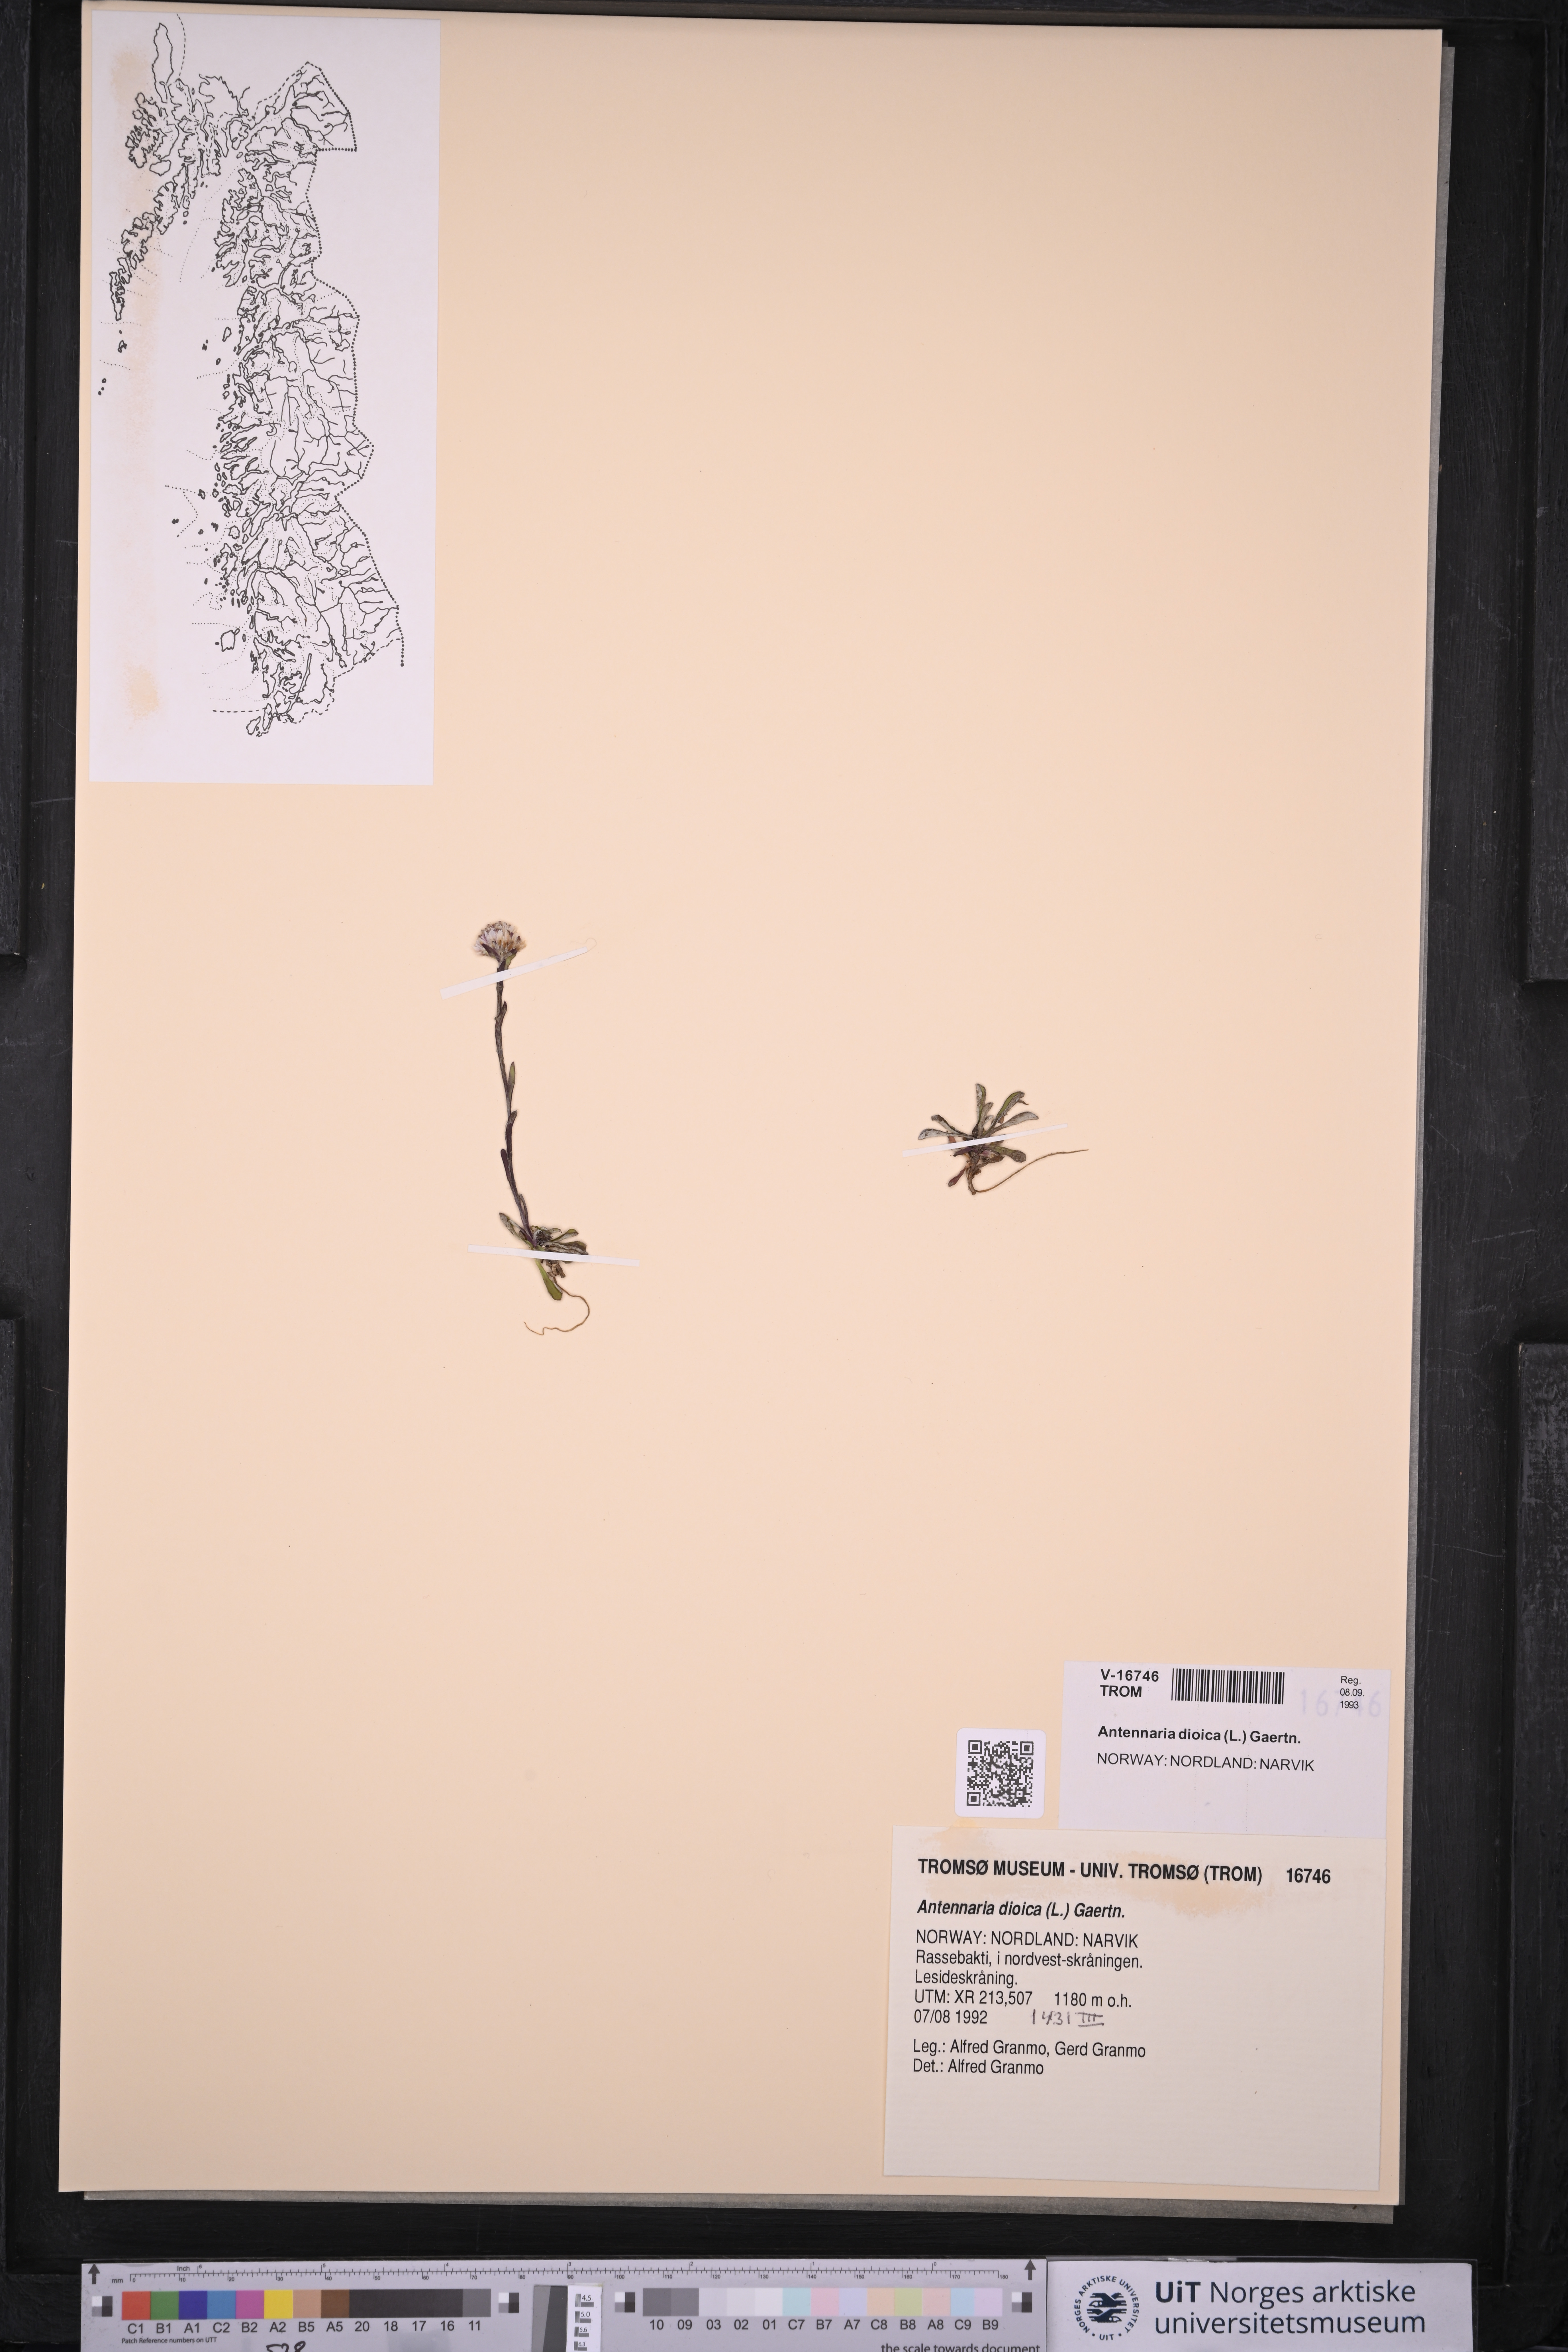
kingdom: Plantae
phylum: Tracheophyta
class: Magnoliopsida
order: Asterales
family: Asteraceae
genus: Antennaria
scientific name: Antennaria dioica
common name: Mountain everlasting
